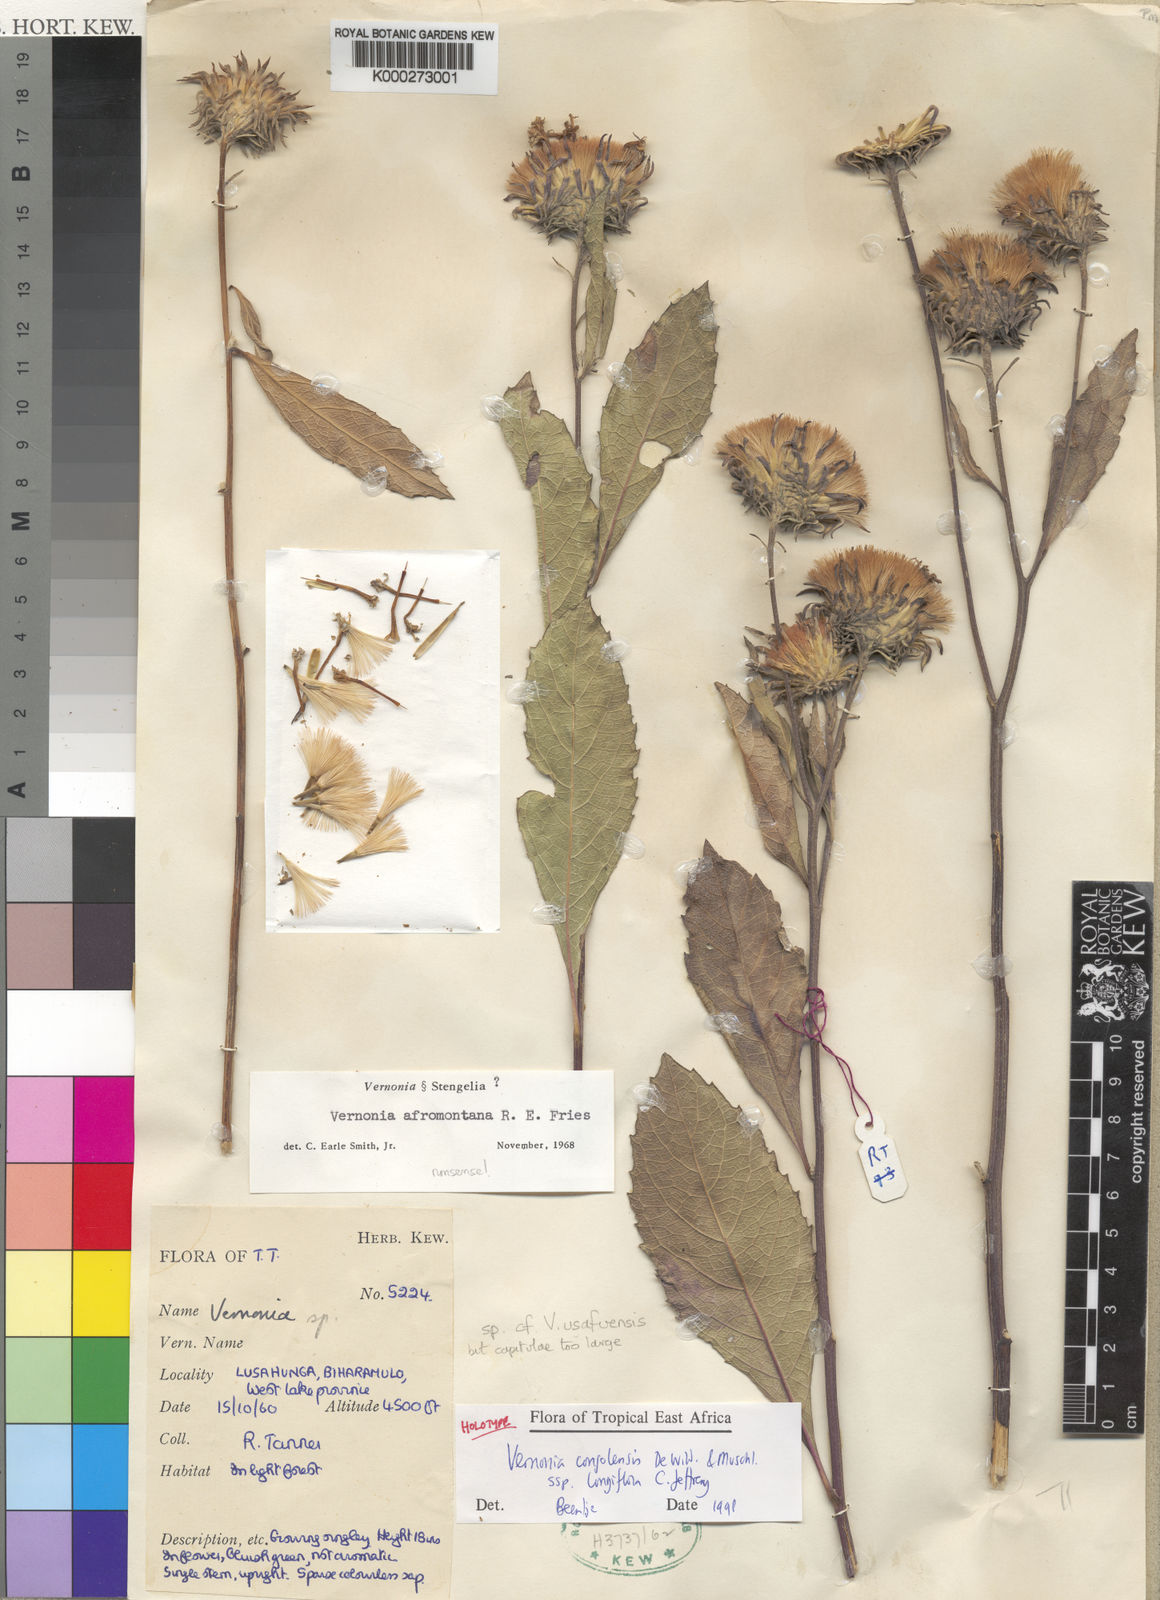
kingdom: Plantae
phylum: Tracheophyta
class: Magnoliopsida
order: Asterales
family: Asteraceae
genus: Vernonia
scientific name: Vernonia congolensis
